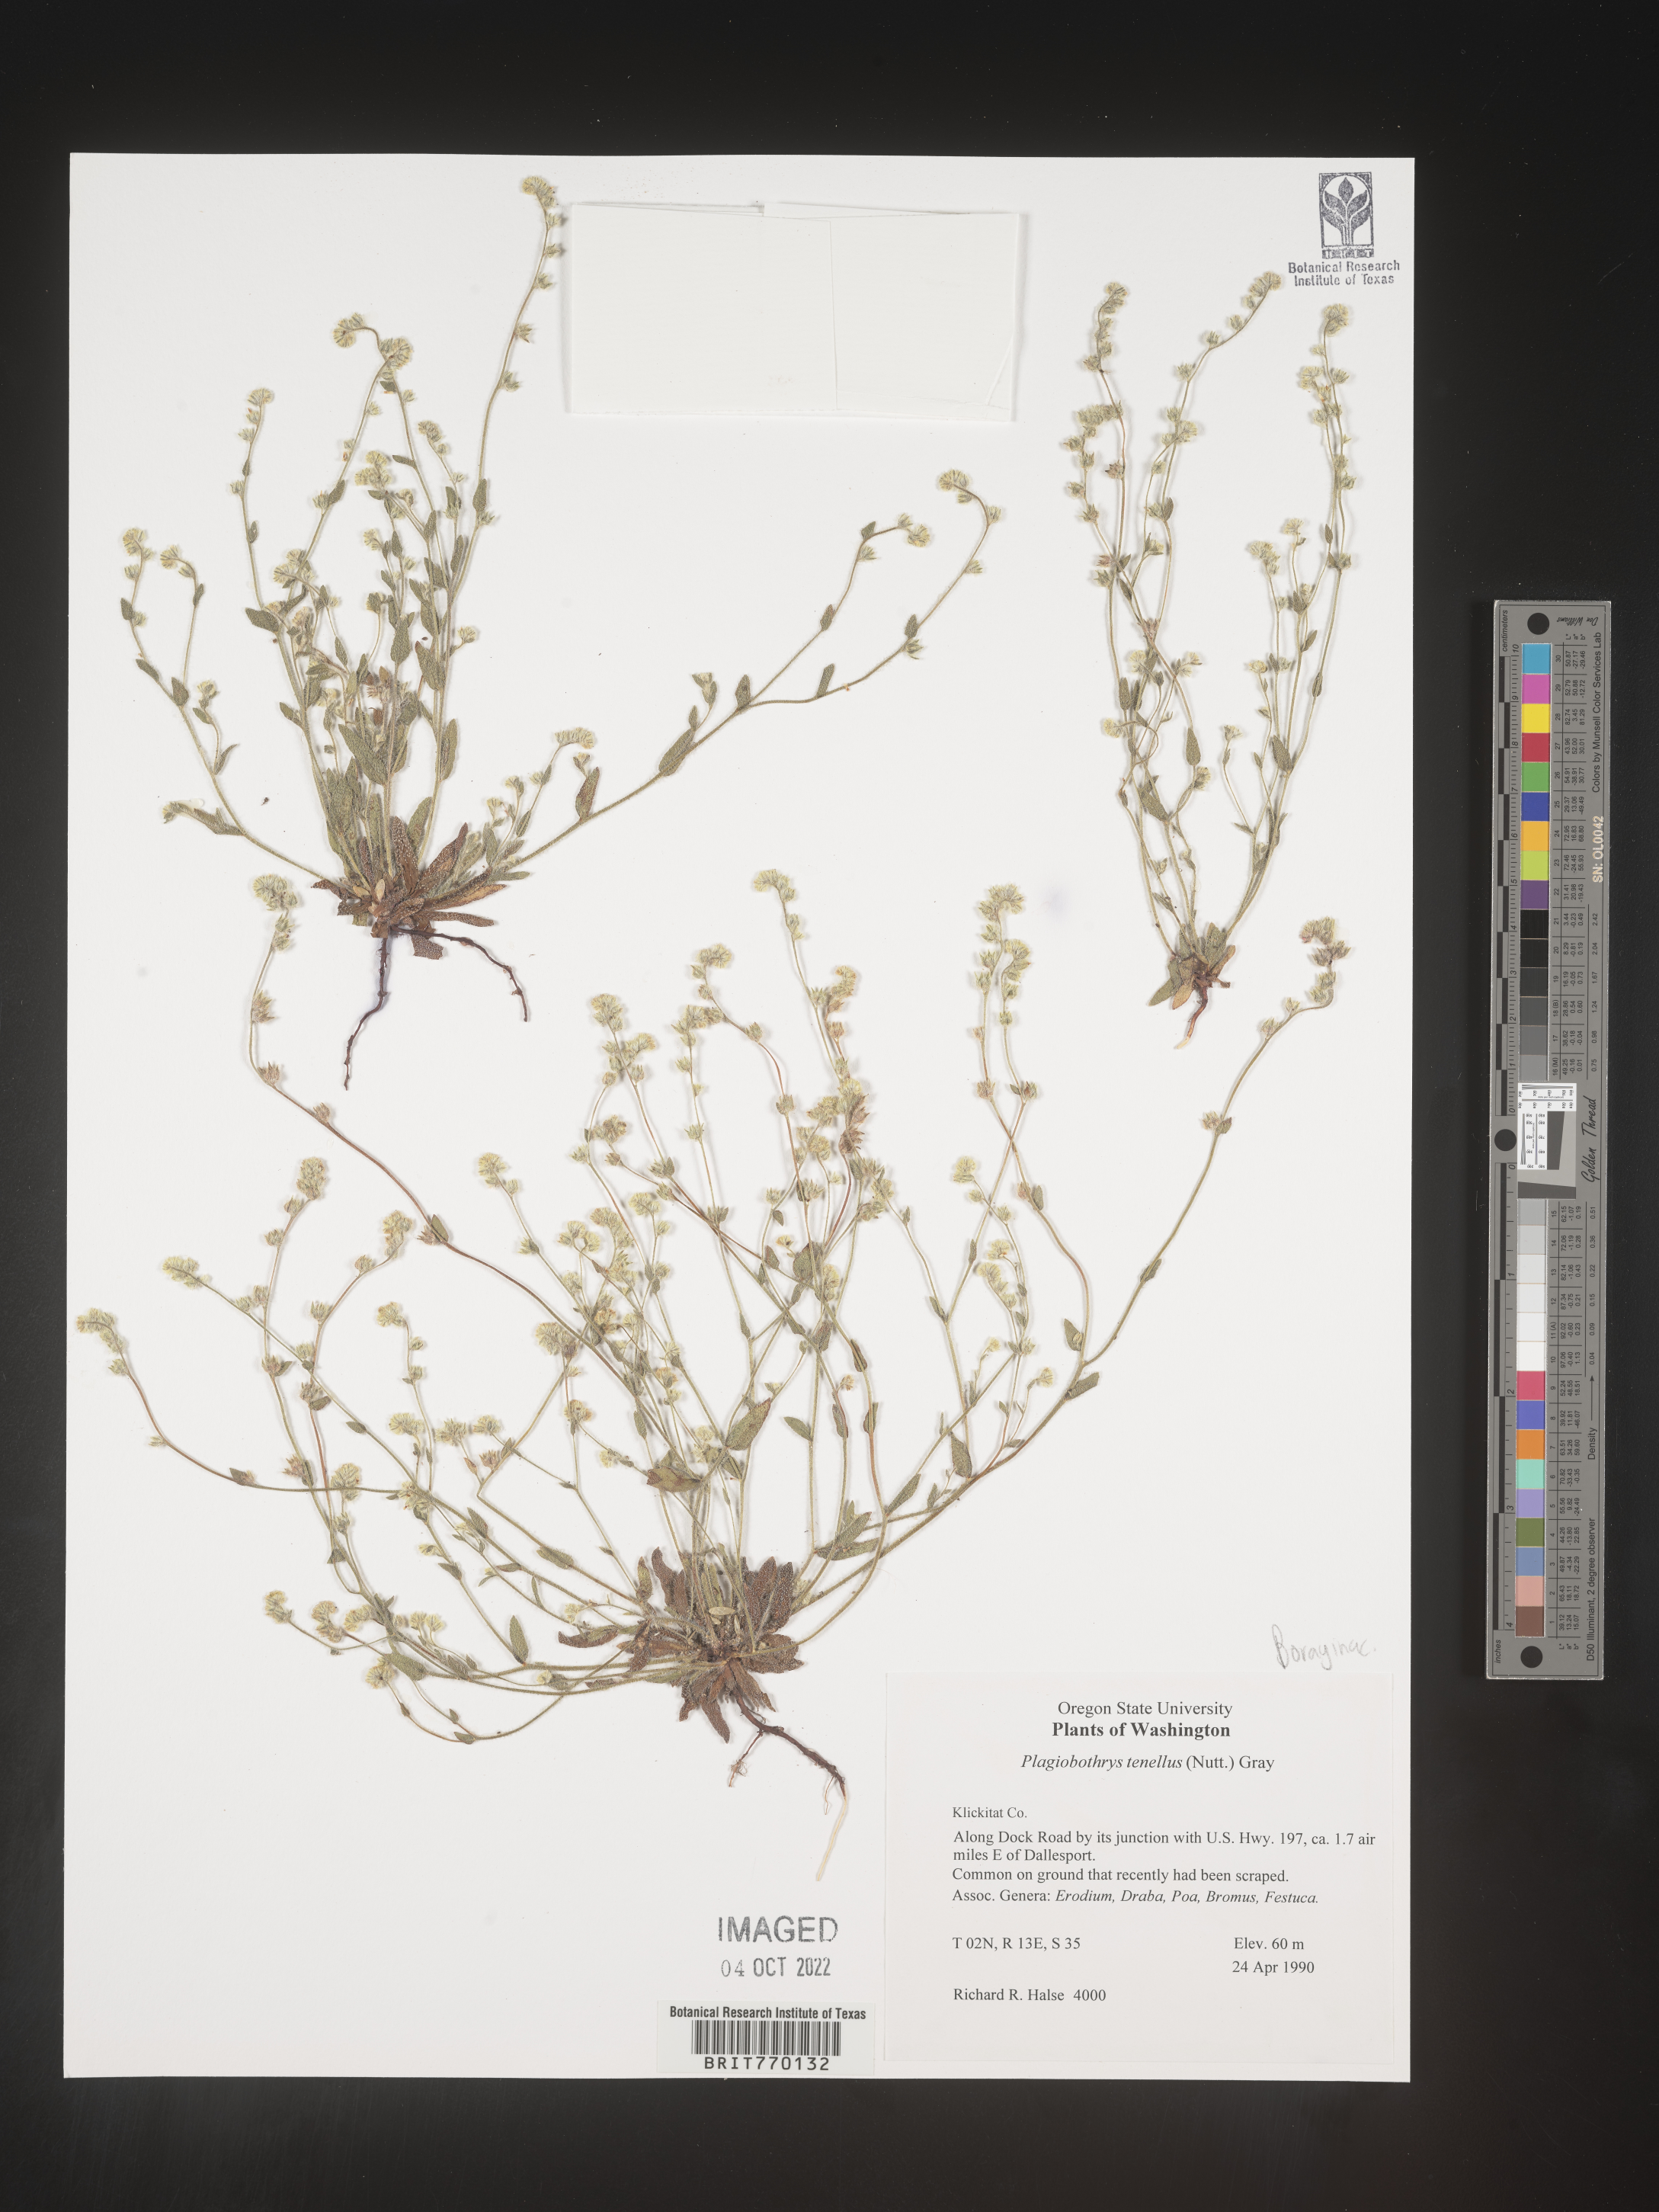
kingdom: Plantae
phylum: Tracheophyta
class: Magnoliopsida
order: Boraginales
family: Boraginaceae
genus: Plagiobothrys
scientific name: Plagiobothrys
